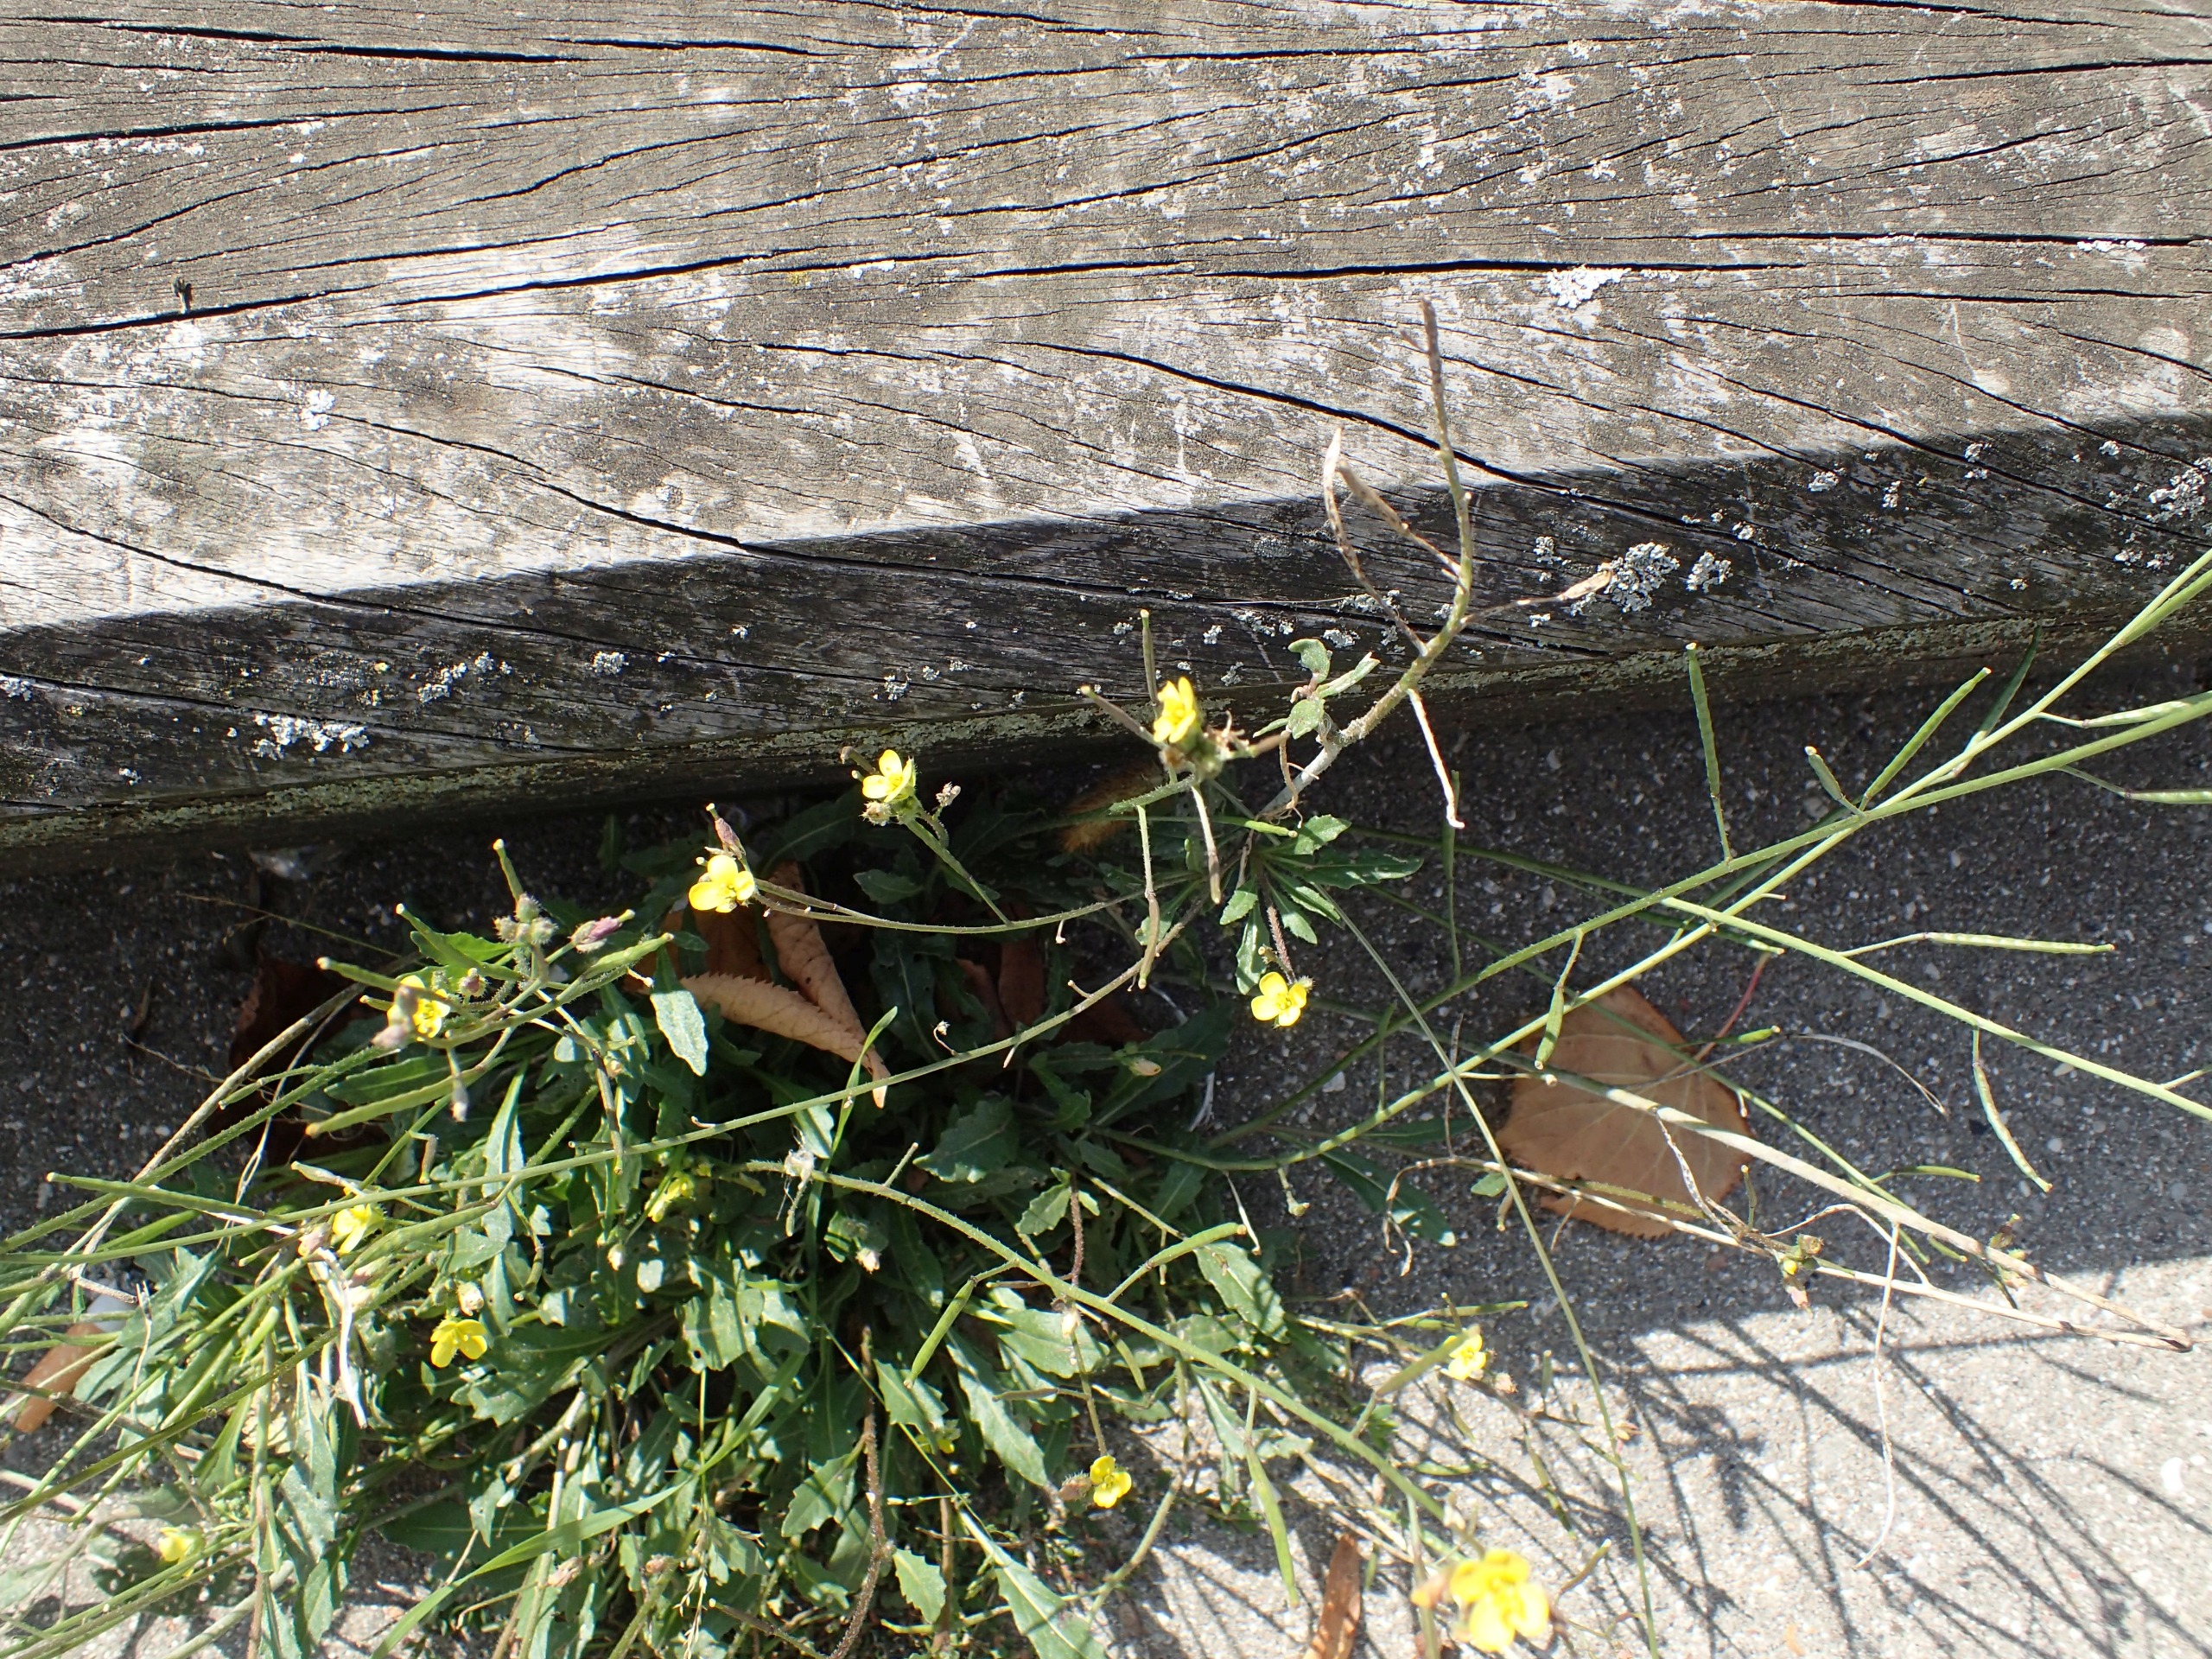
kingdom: Plantae
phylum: Tracheophyta
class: Magnoliopsida
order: Brassicales
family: Brassicaceae
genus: Diplotaxis
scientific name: Diplotaxis muralis
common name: Mursennep
